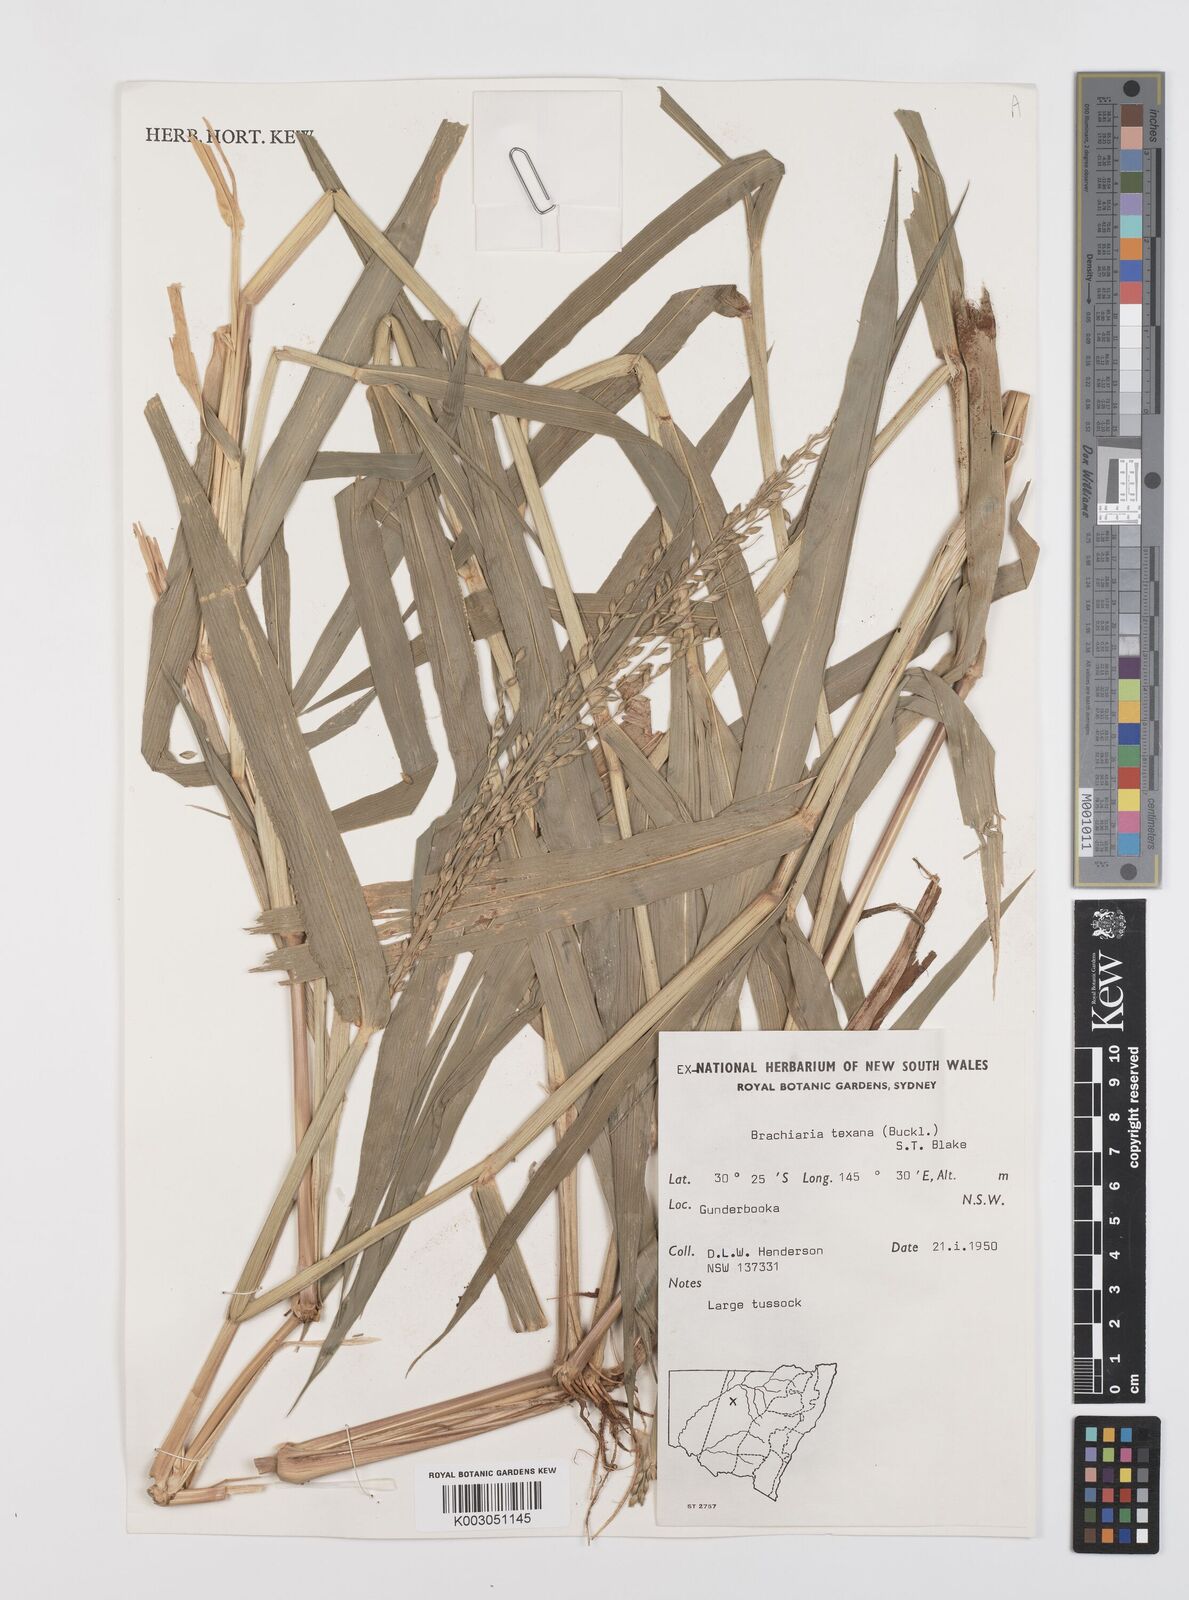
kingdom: Plantae
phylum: Tracheophyta
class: Liliopsida
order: Poales
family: Poaceae
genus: Urochloa
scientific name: Urochloa texana
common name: Texas millet
